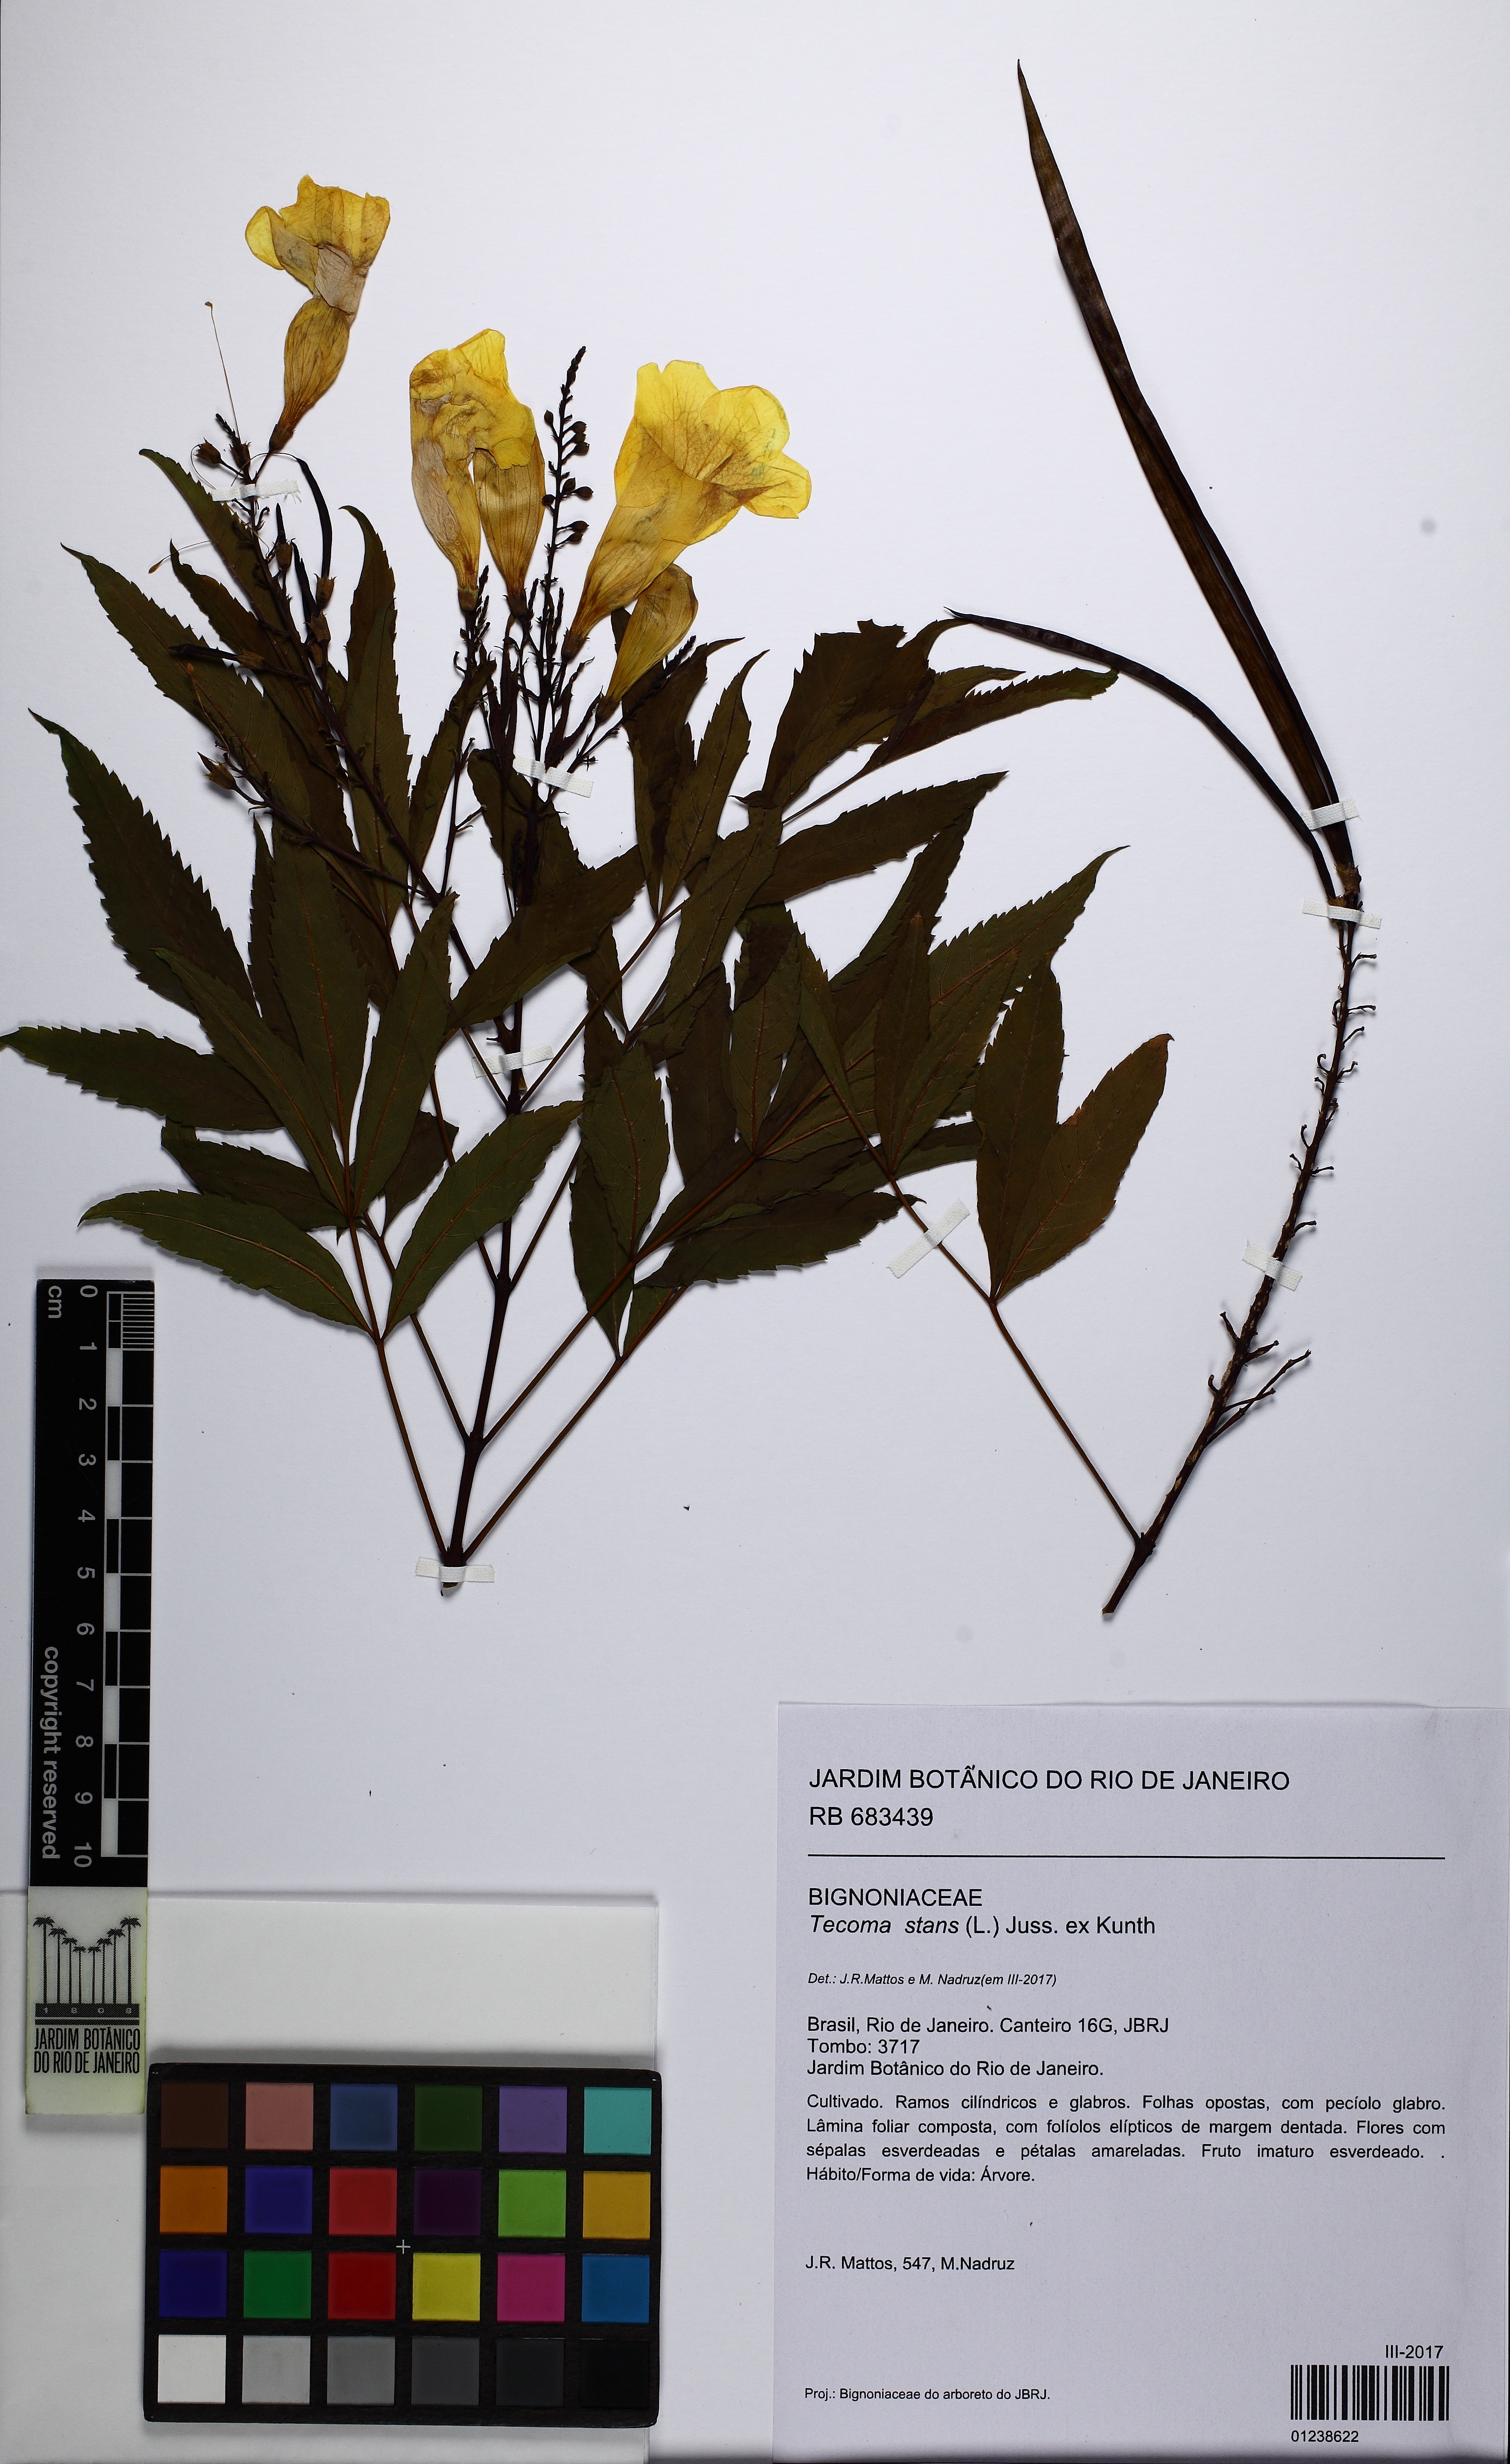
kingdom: Plantae
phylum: Tracheophyta
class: Magnoliopsida
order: Lamiales
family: Bignoniaceae
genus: Tecoma
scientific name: Tecoma stans
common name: Yellow trumpetbush
